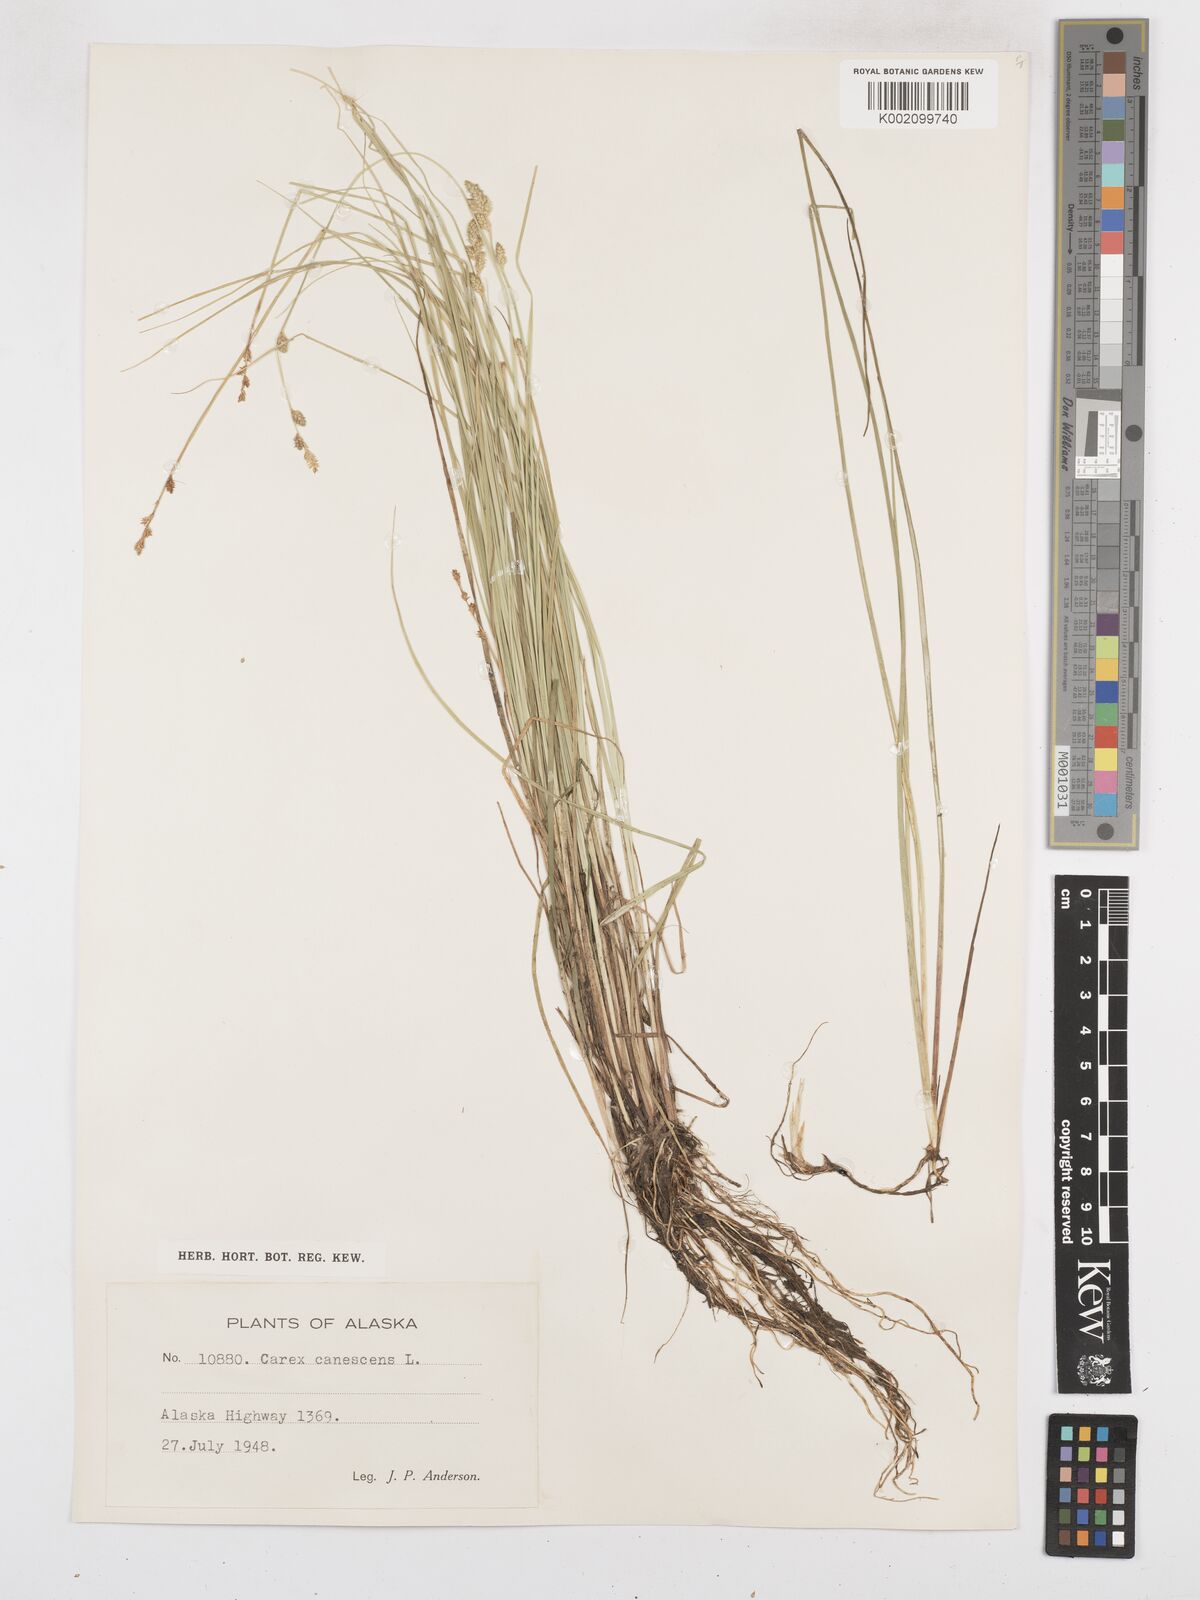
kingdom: Plantae
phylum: Tracheophyta
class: Liliopsida
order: Poales
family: Cyperaceae
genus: Carex
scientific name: Carex curta
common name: White sedge
